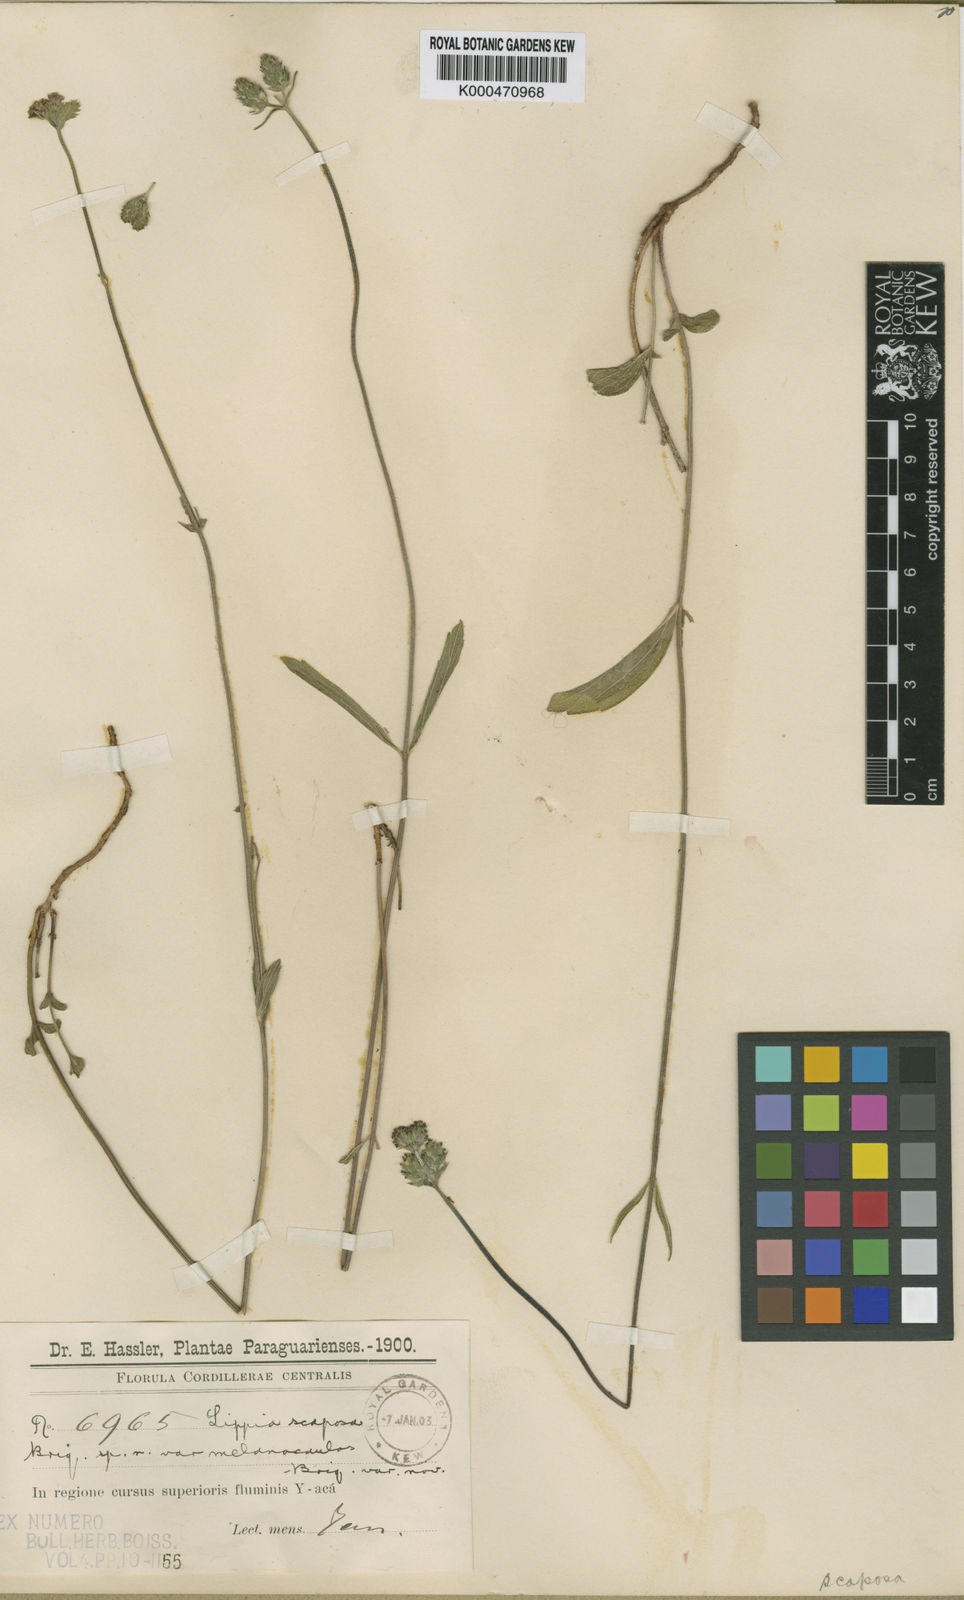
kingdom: Plantae
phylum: Tracheophyta
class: Magnoliopsida
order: Lamiales
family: Verbenaceae
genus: Lippia
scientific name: Lippia hieraciifolia
